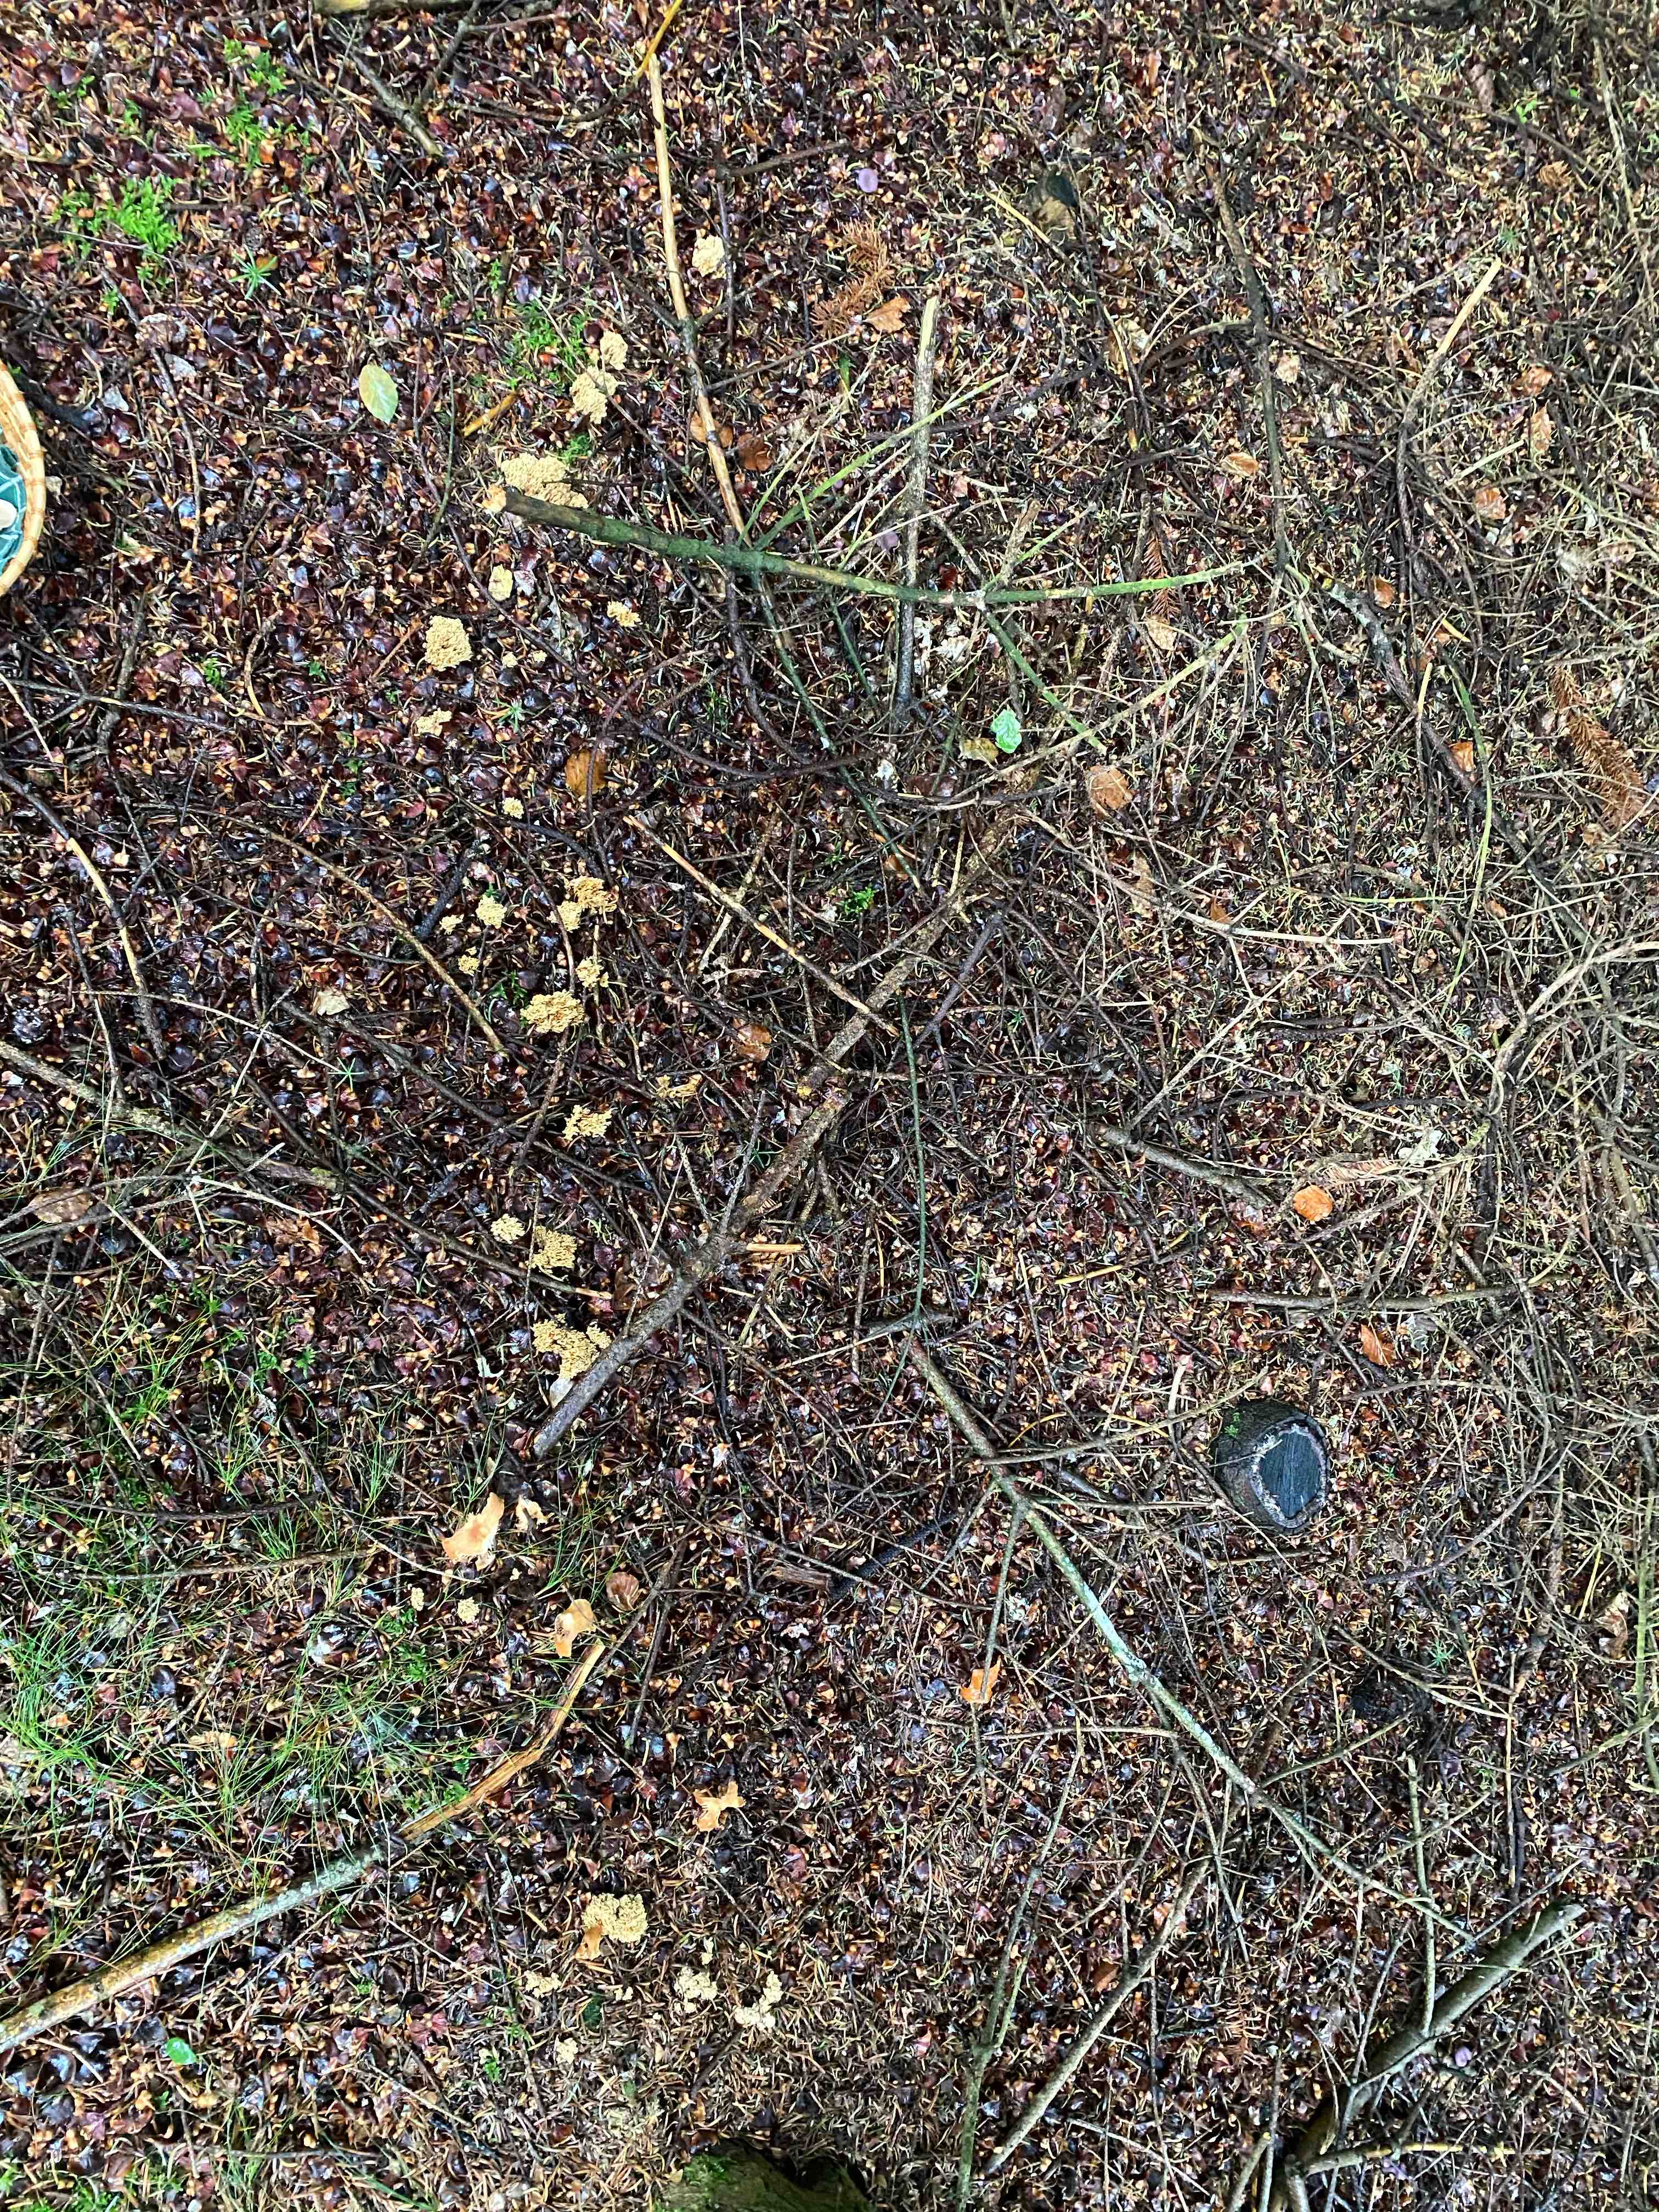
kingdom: Fungi
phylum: Basidiomycota
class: Agaricomycetes
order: Gomphales
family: Gomphaceae
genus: Phaeoclavulina
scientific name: Phaeoclavulina eumorpha
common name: gran-koralsvamp
